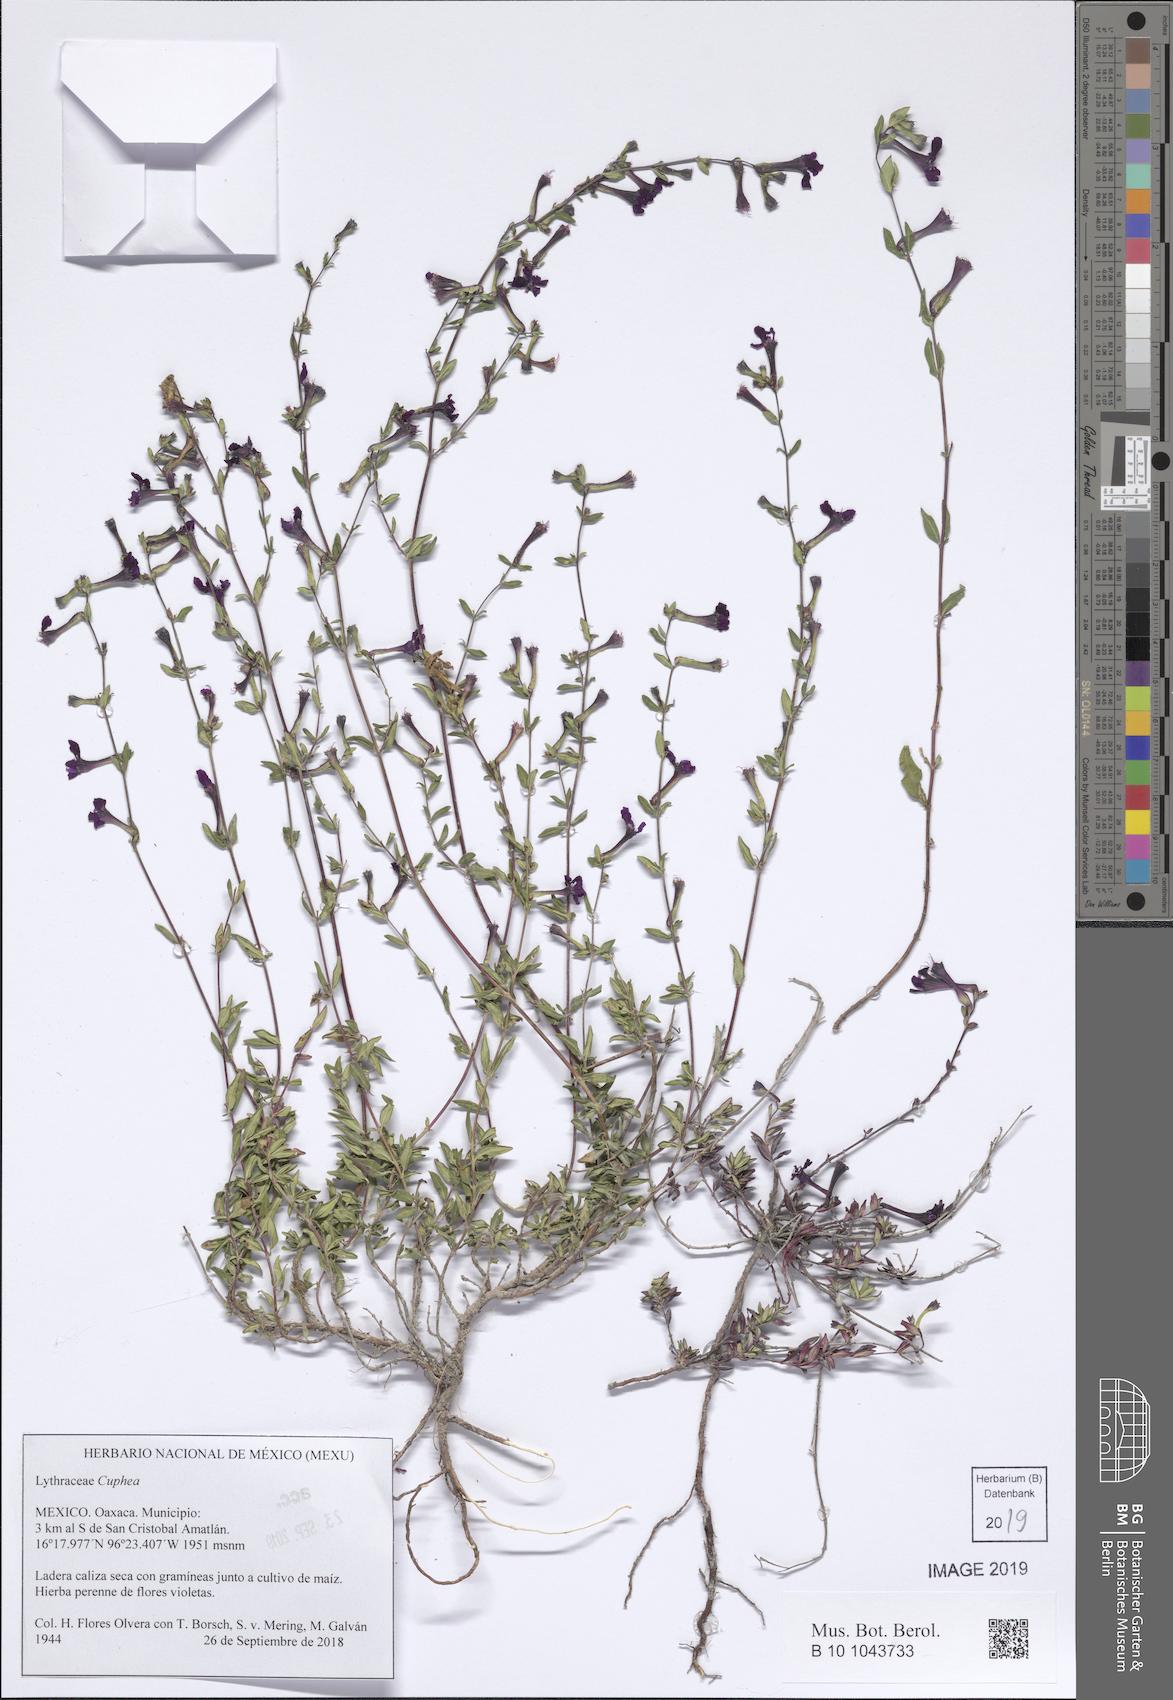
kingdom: Plantae
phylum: Tracheophyta
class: Magnoliopsida
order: Myrtales
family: Lythraceae
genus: Cuphea
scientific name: Cuphea
